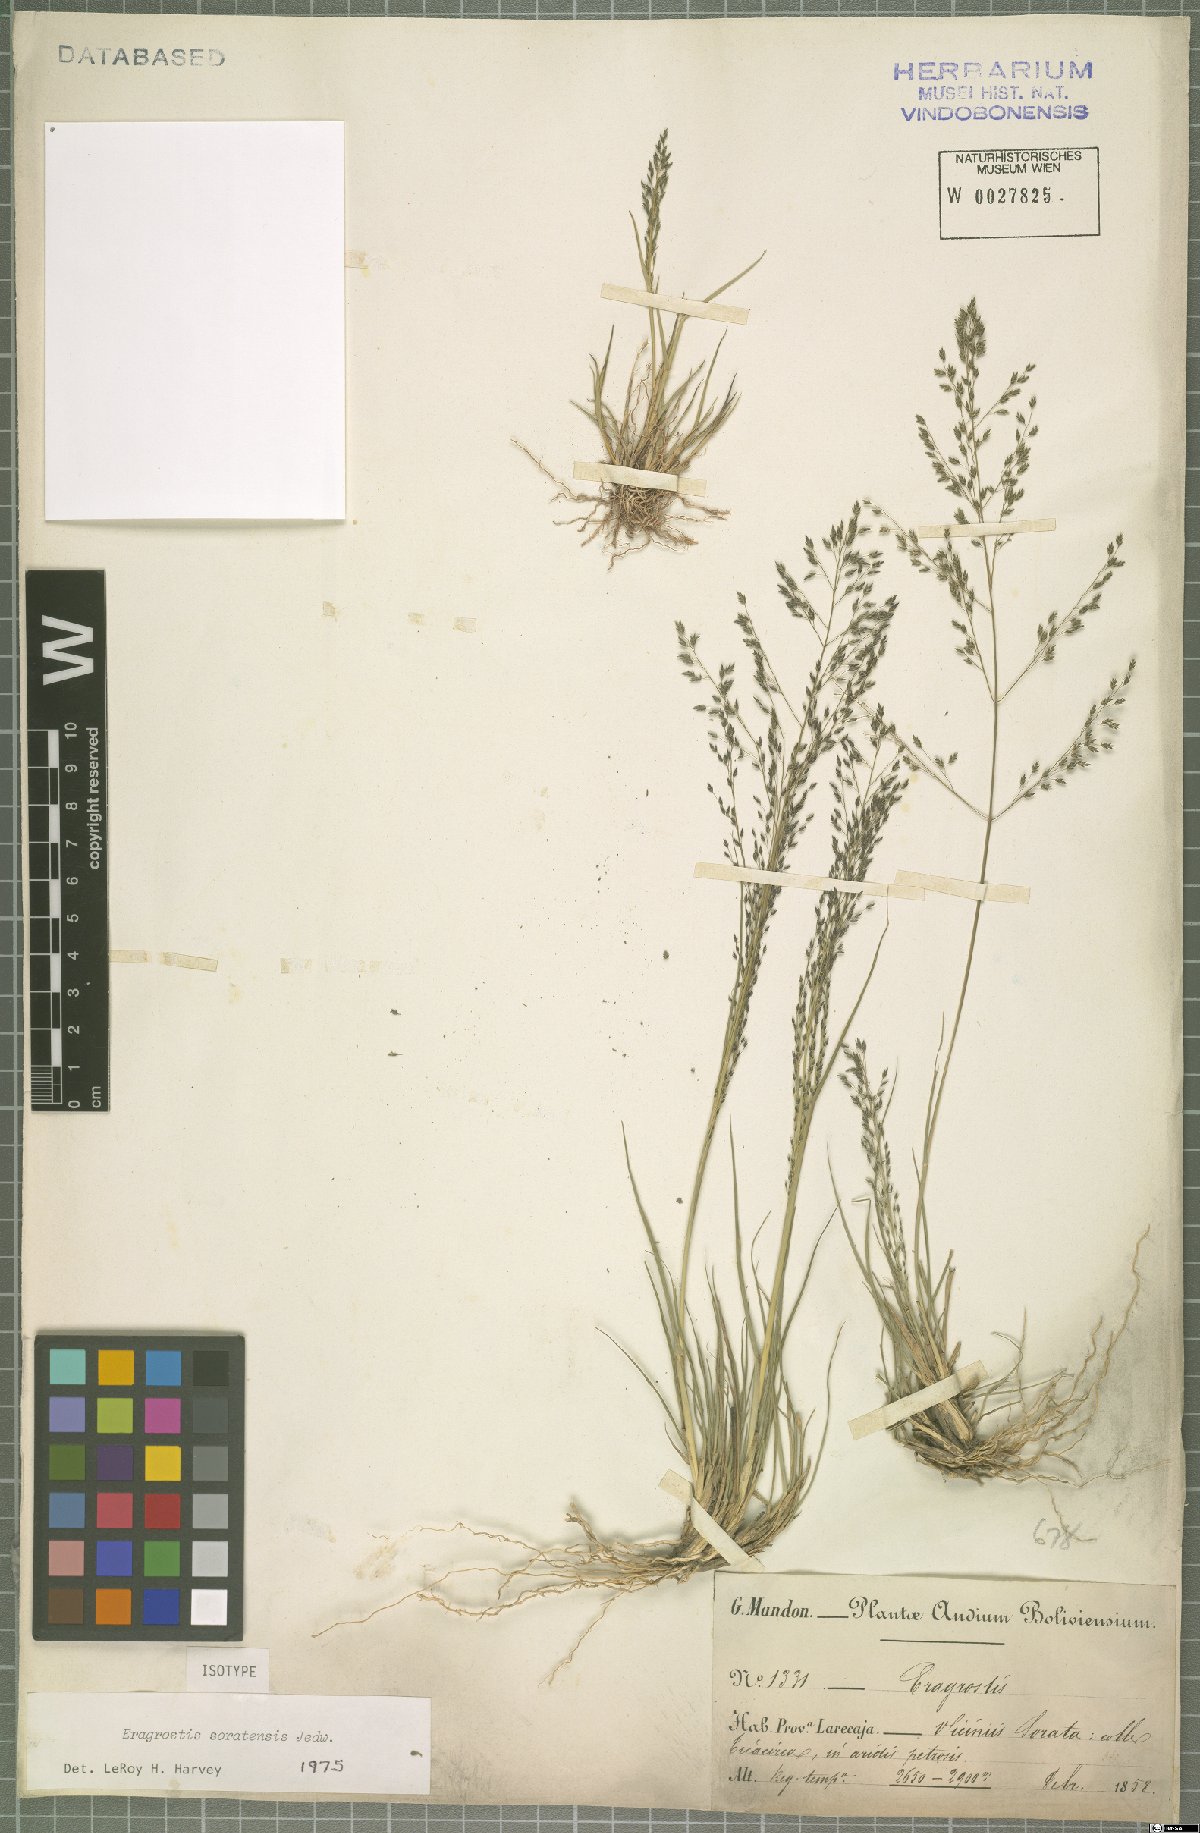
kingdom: Plantae
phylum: Tracheophyta
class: Liliopsida
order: Poales
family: Poaceae
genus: Eragrostis
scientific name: Eragrostis soratensis
